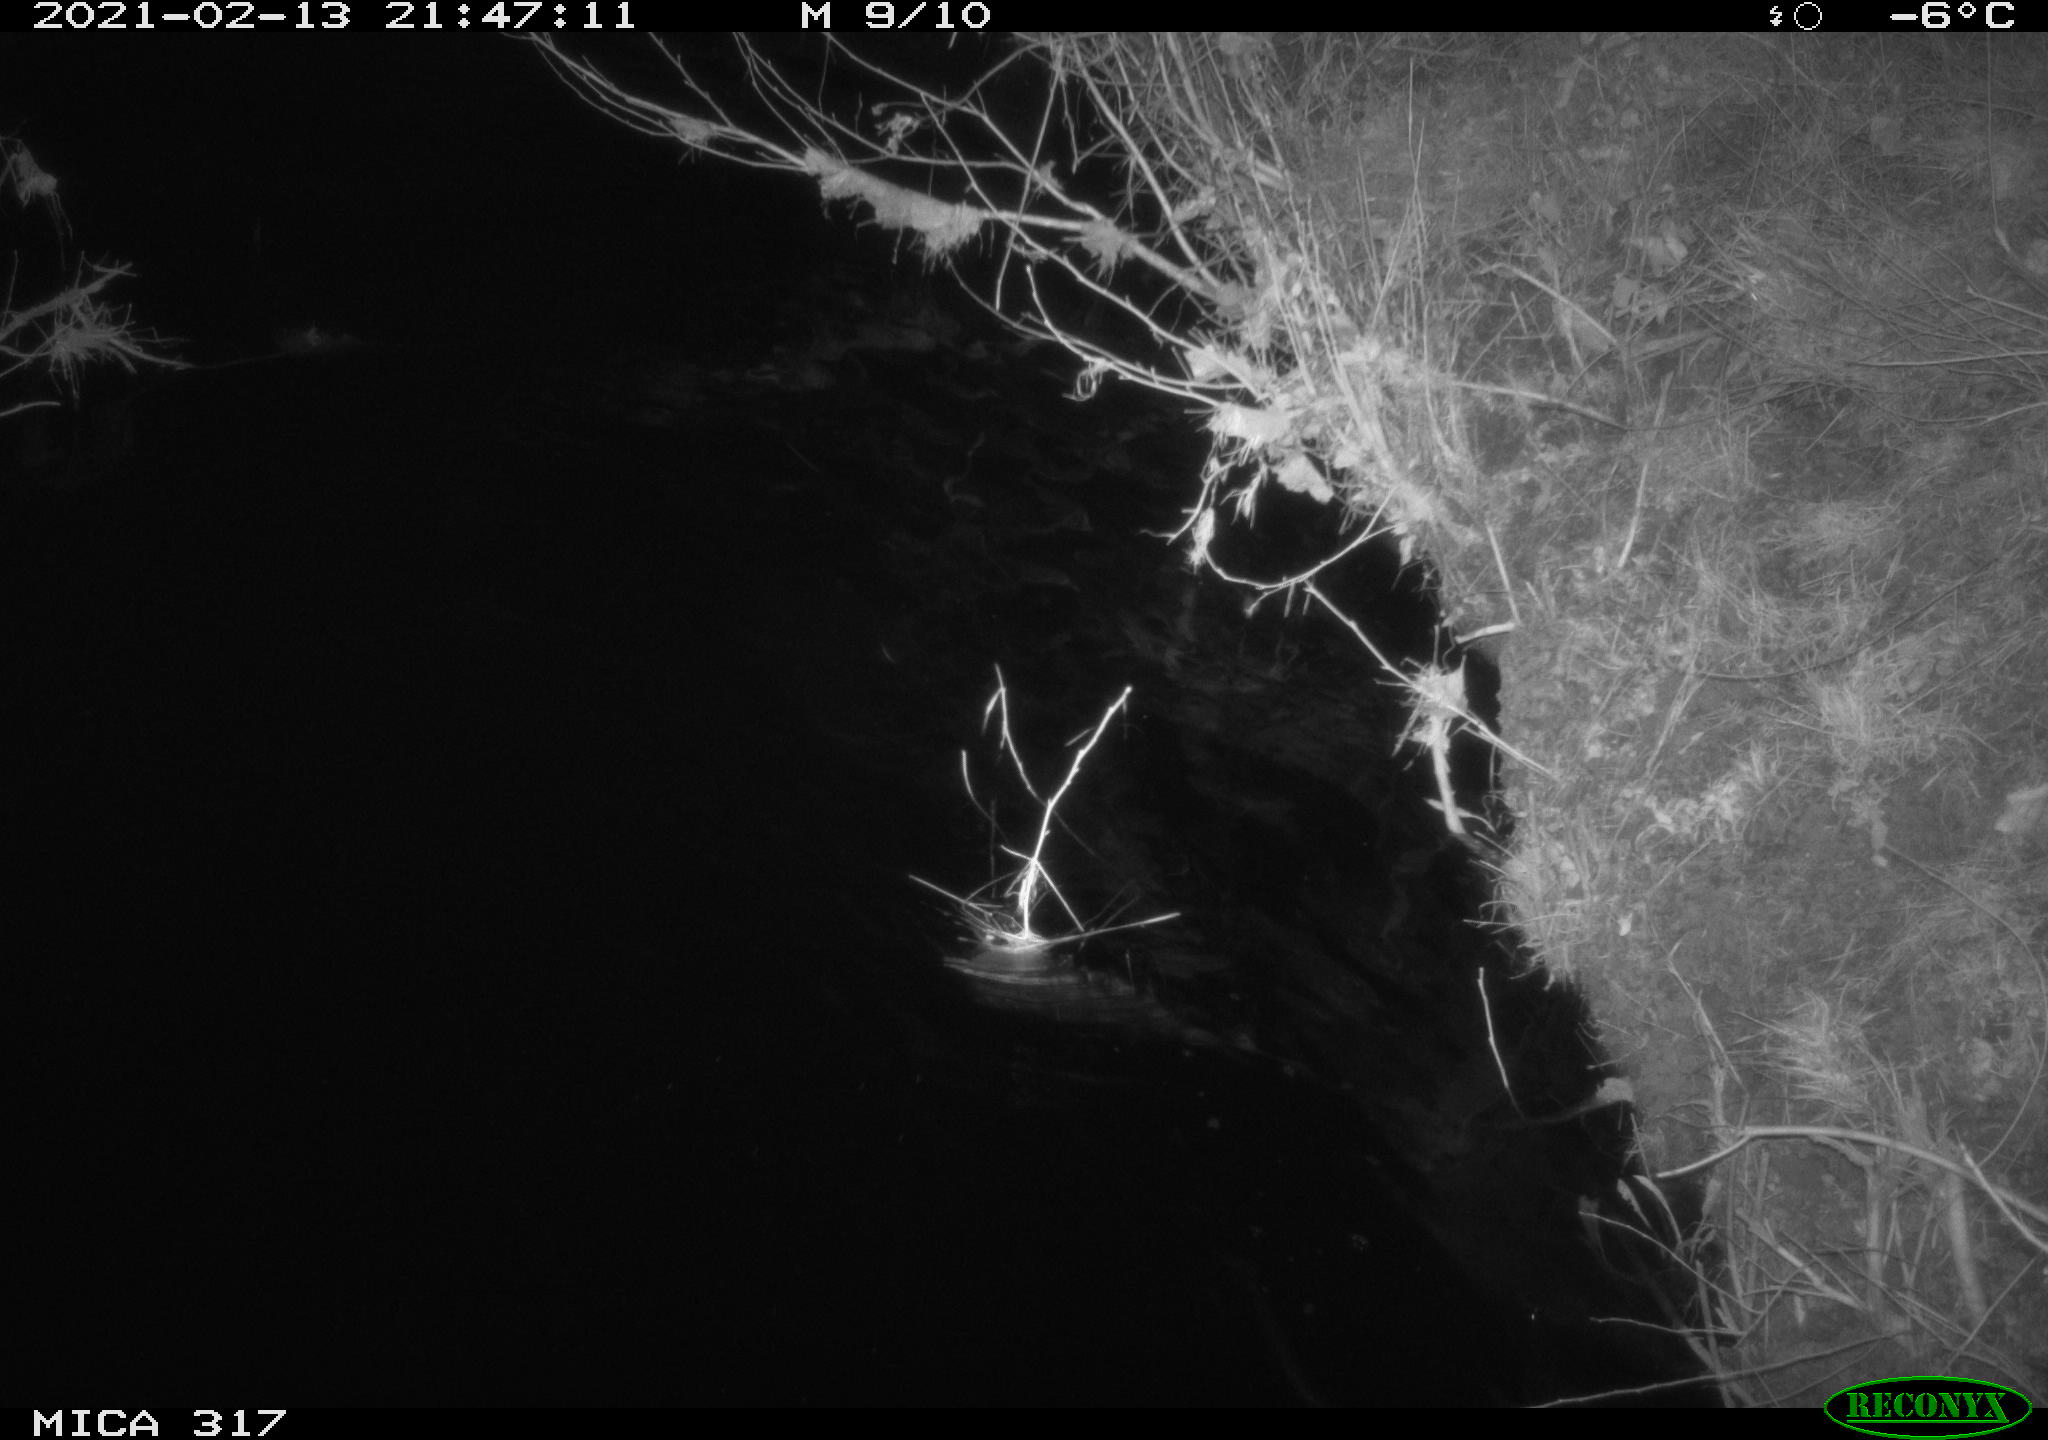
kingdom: Animalia
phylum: Chordata
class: Aves
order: Anseriformes
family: Anatidae
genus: Anas
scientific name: Anas platyrhynchos
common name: Mallard
